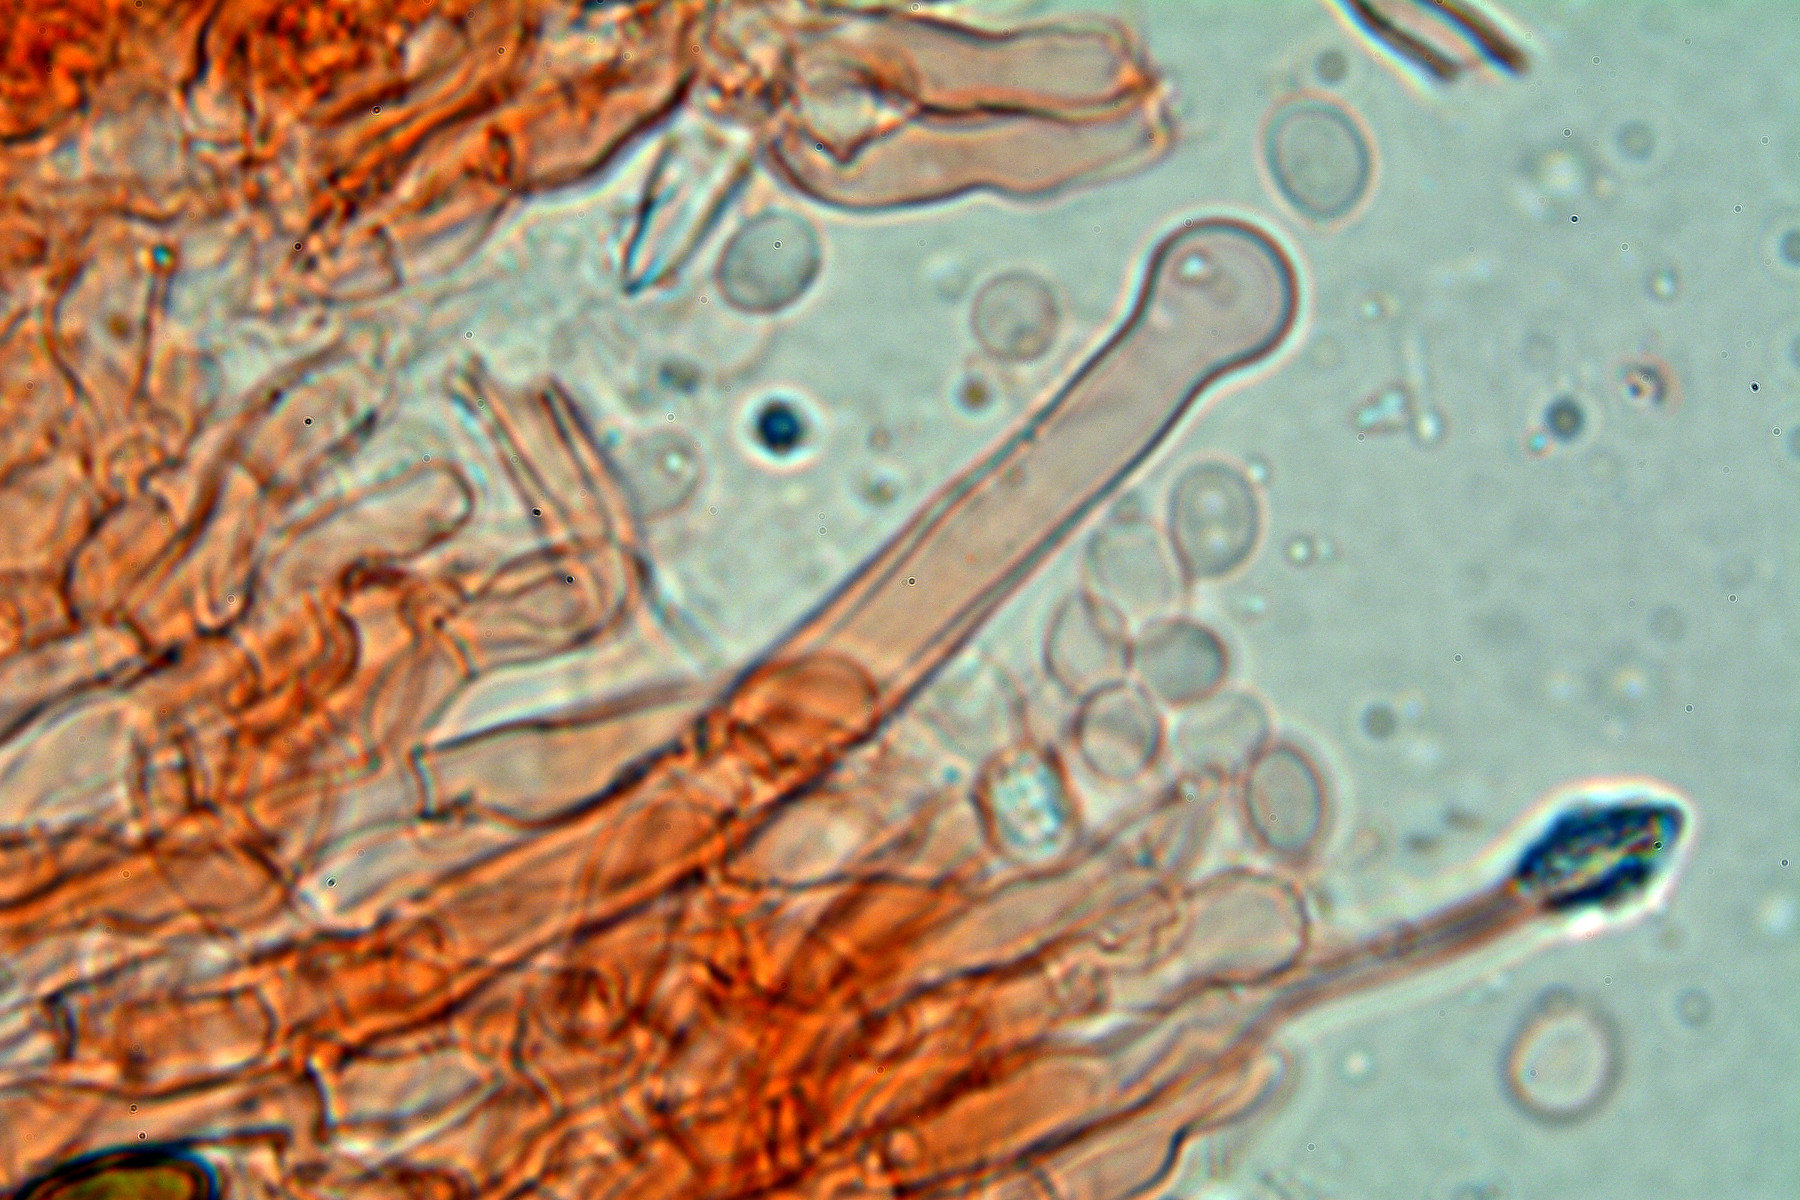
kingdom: Fungi
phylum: Basidiomycota
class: Agaricomycetes
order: Hymenochaetales
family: Hyphodontiaceae
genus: Hyphodontia
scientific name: Hyphodontia alutaria
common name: flaskerenser-nålehinde
